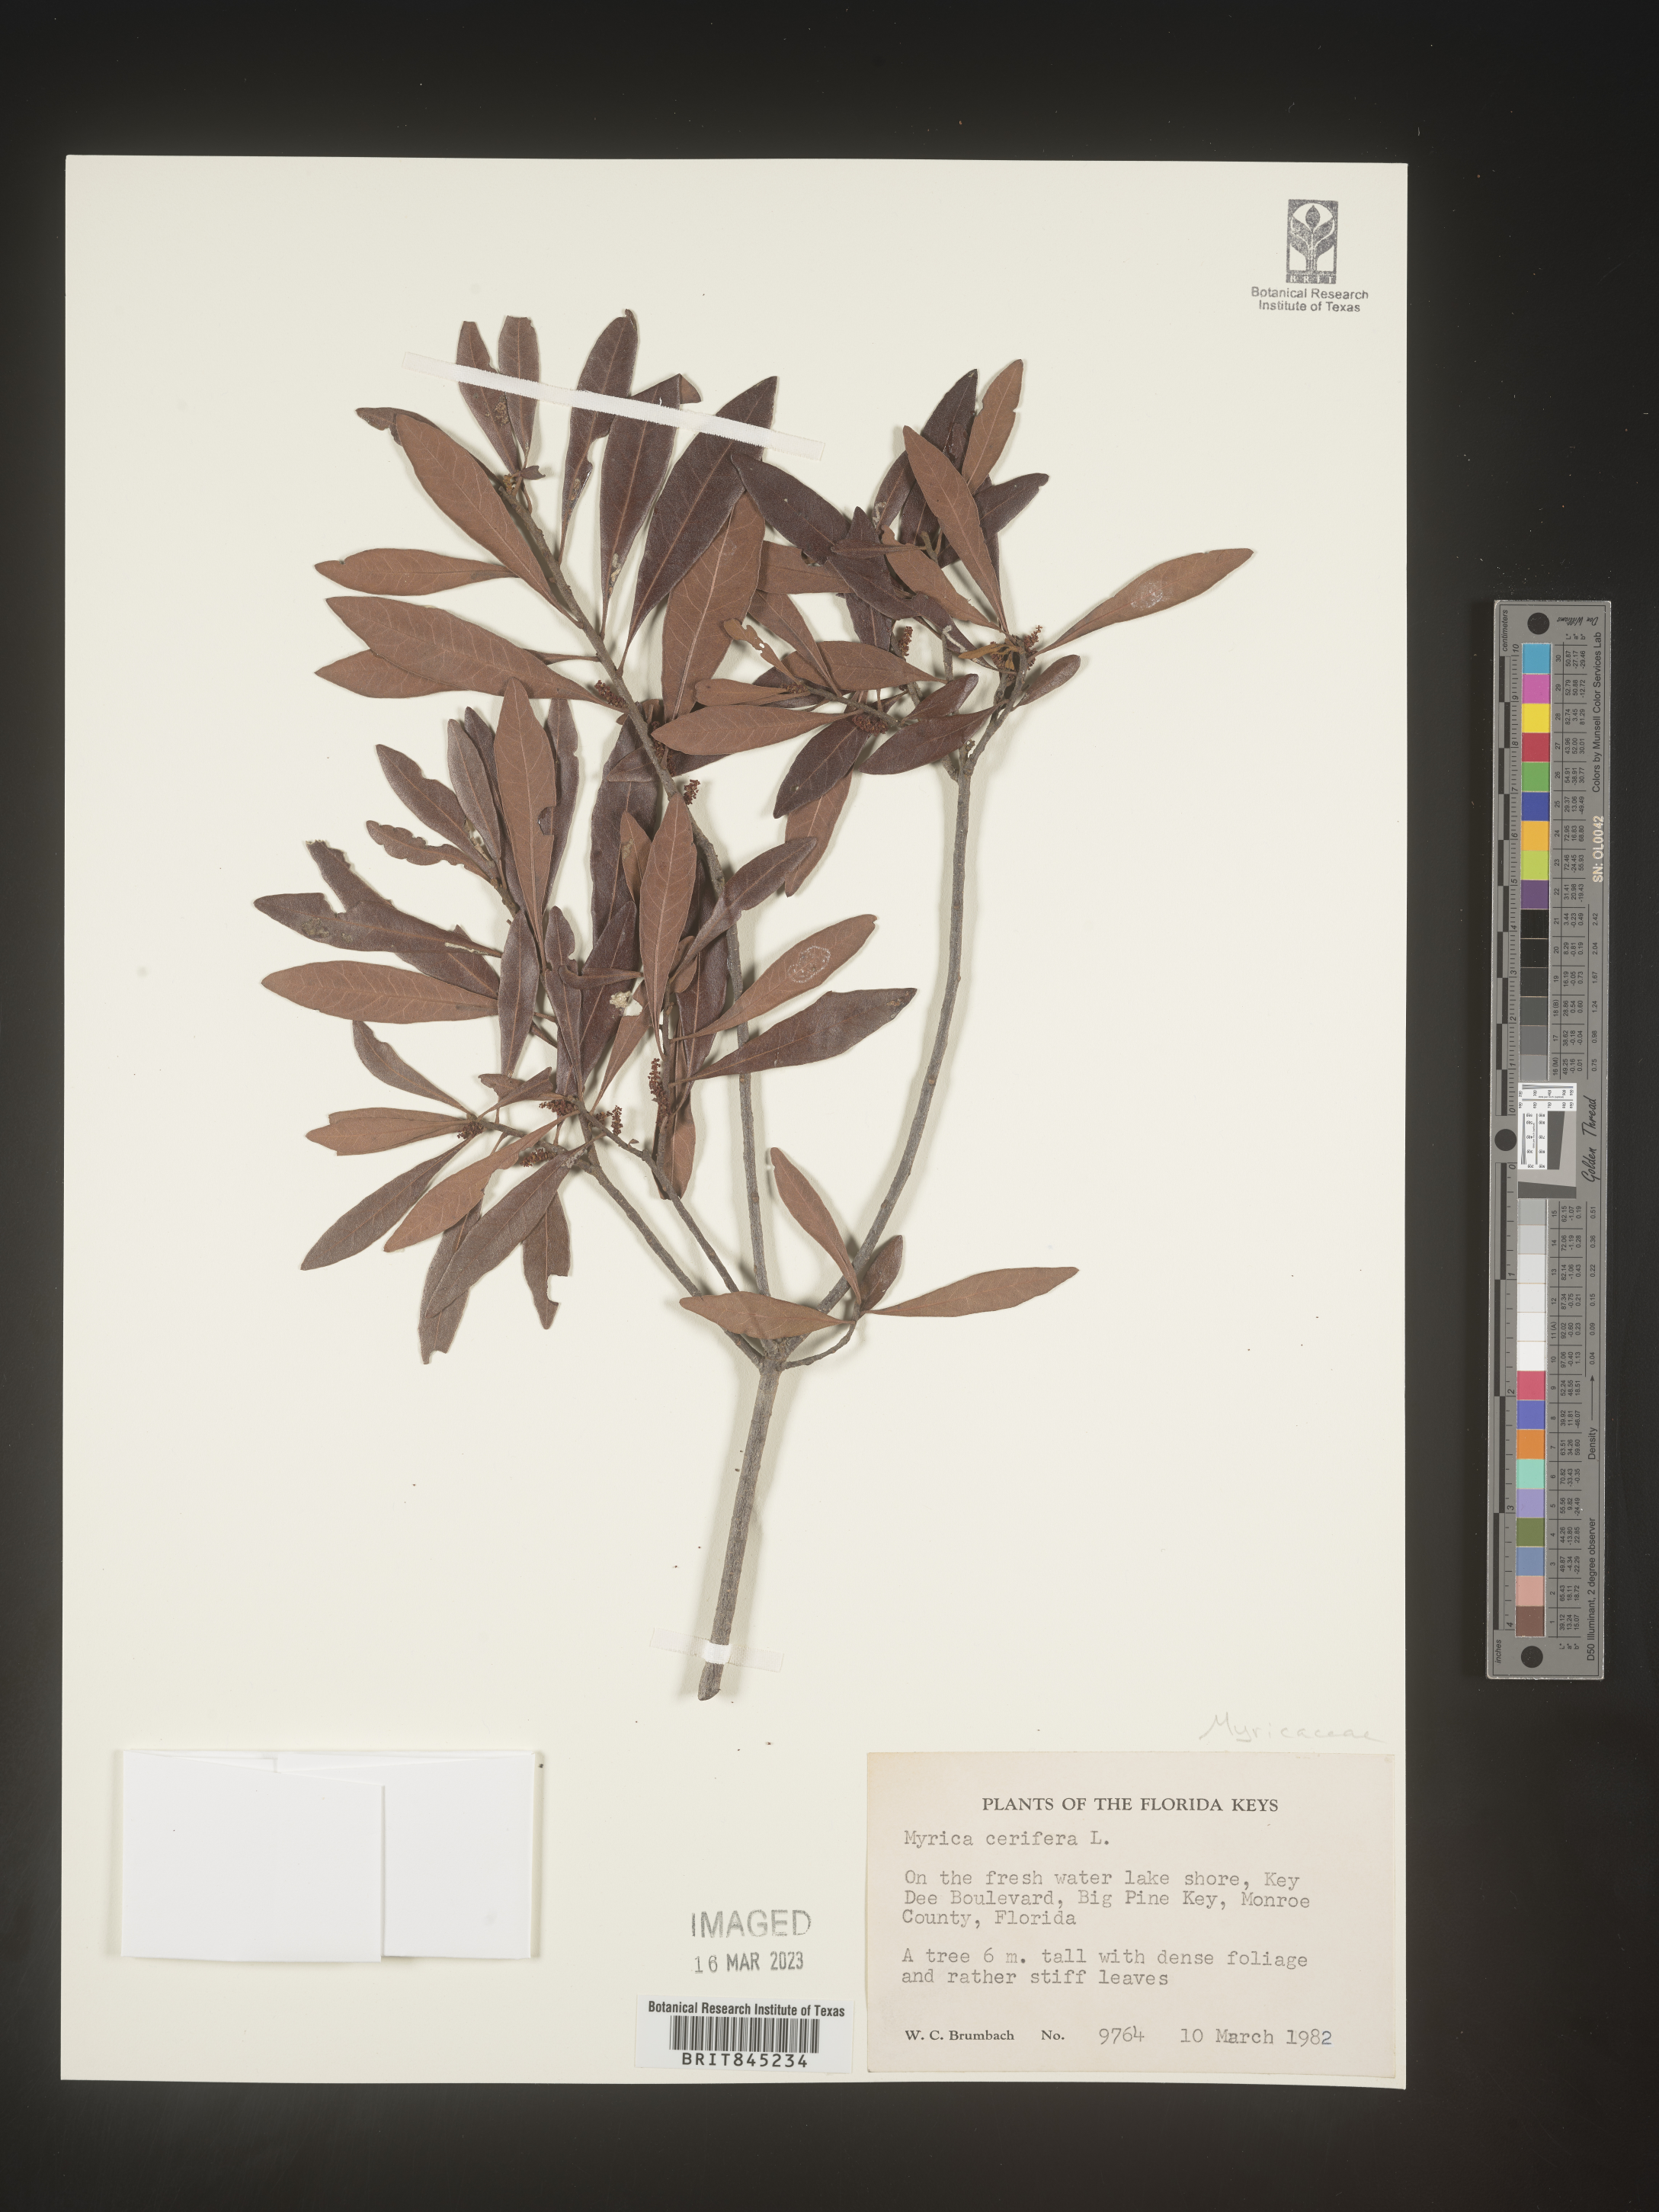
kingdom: Plantae
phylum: Tracheophyta
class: Magnoliopsida
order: Fagales
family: Myricaceae
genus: Morella
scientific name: Morella cerifera
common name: Wax myrtle
